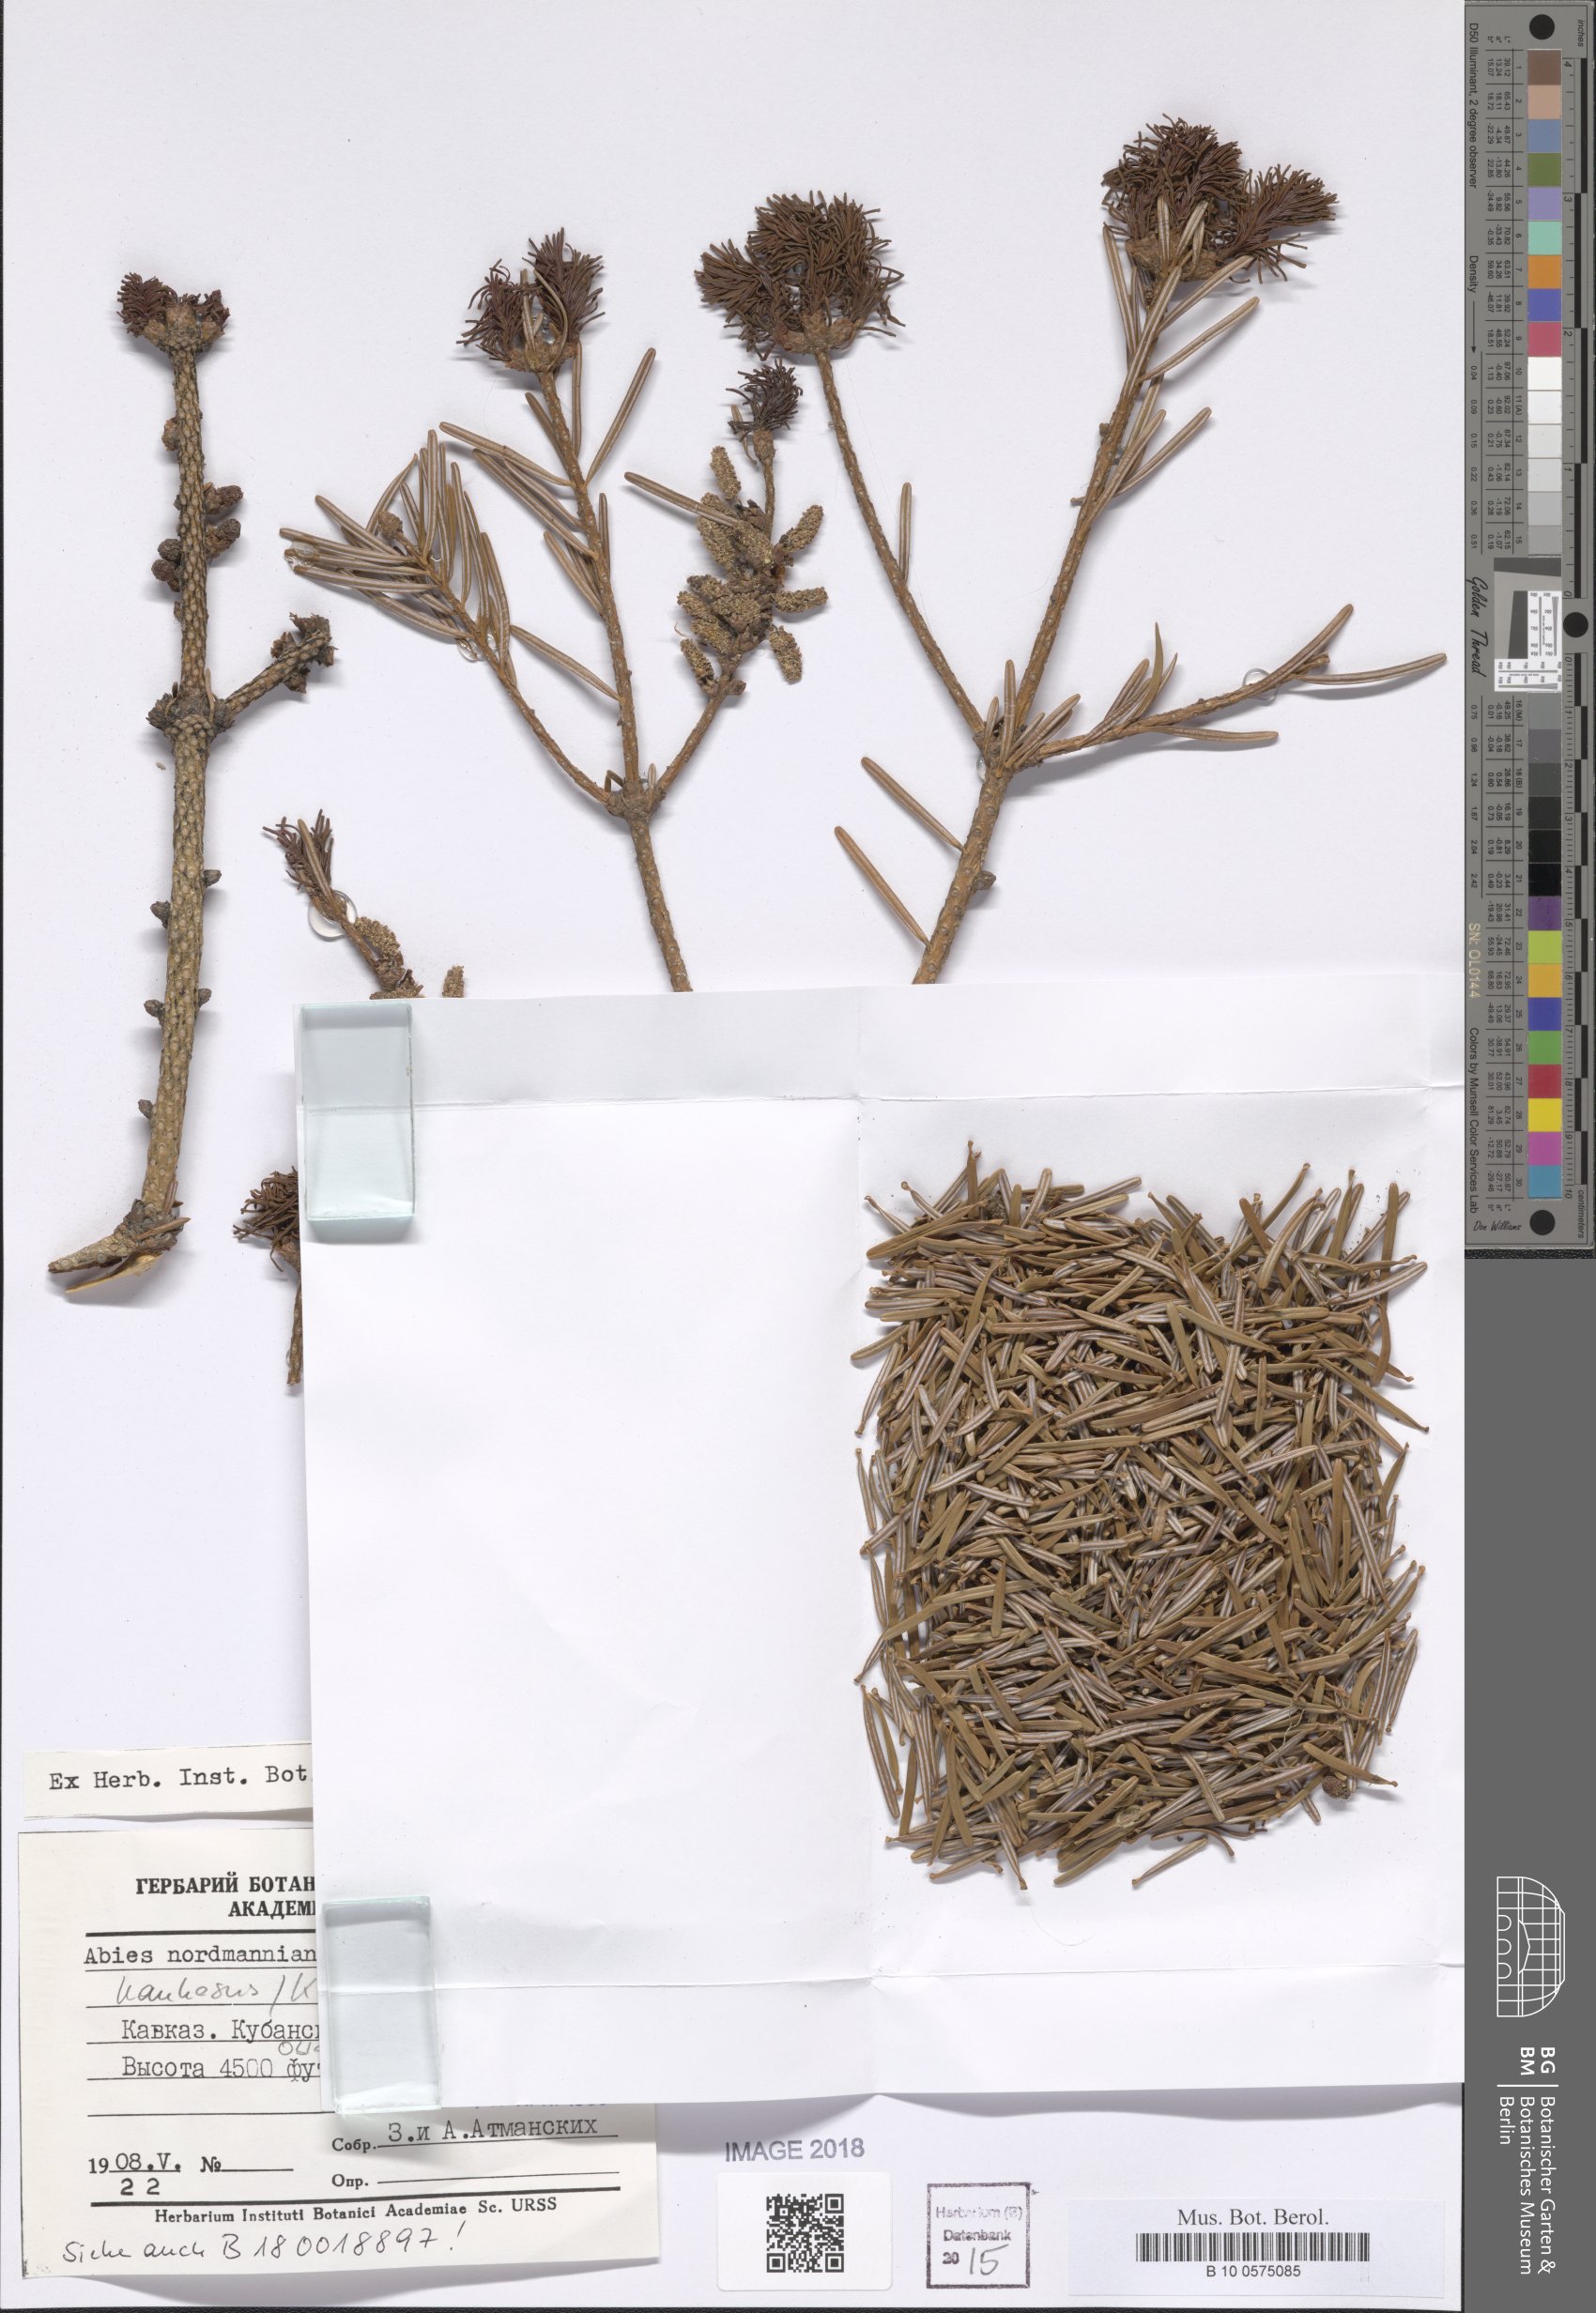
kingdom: Plantae
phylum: Tracheophyta
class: Pinopsida
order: Pinales
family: Pinaceae
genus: Abies
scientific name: Abies nordmanniana
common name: Caucasian fir
